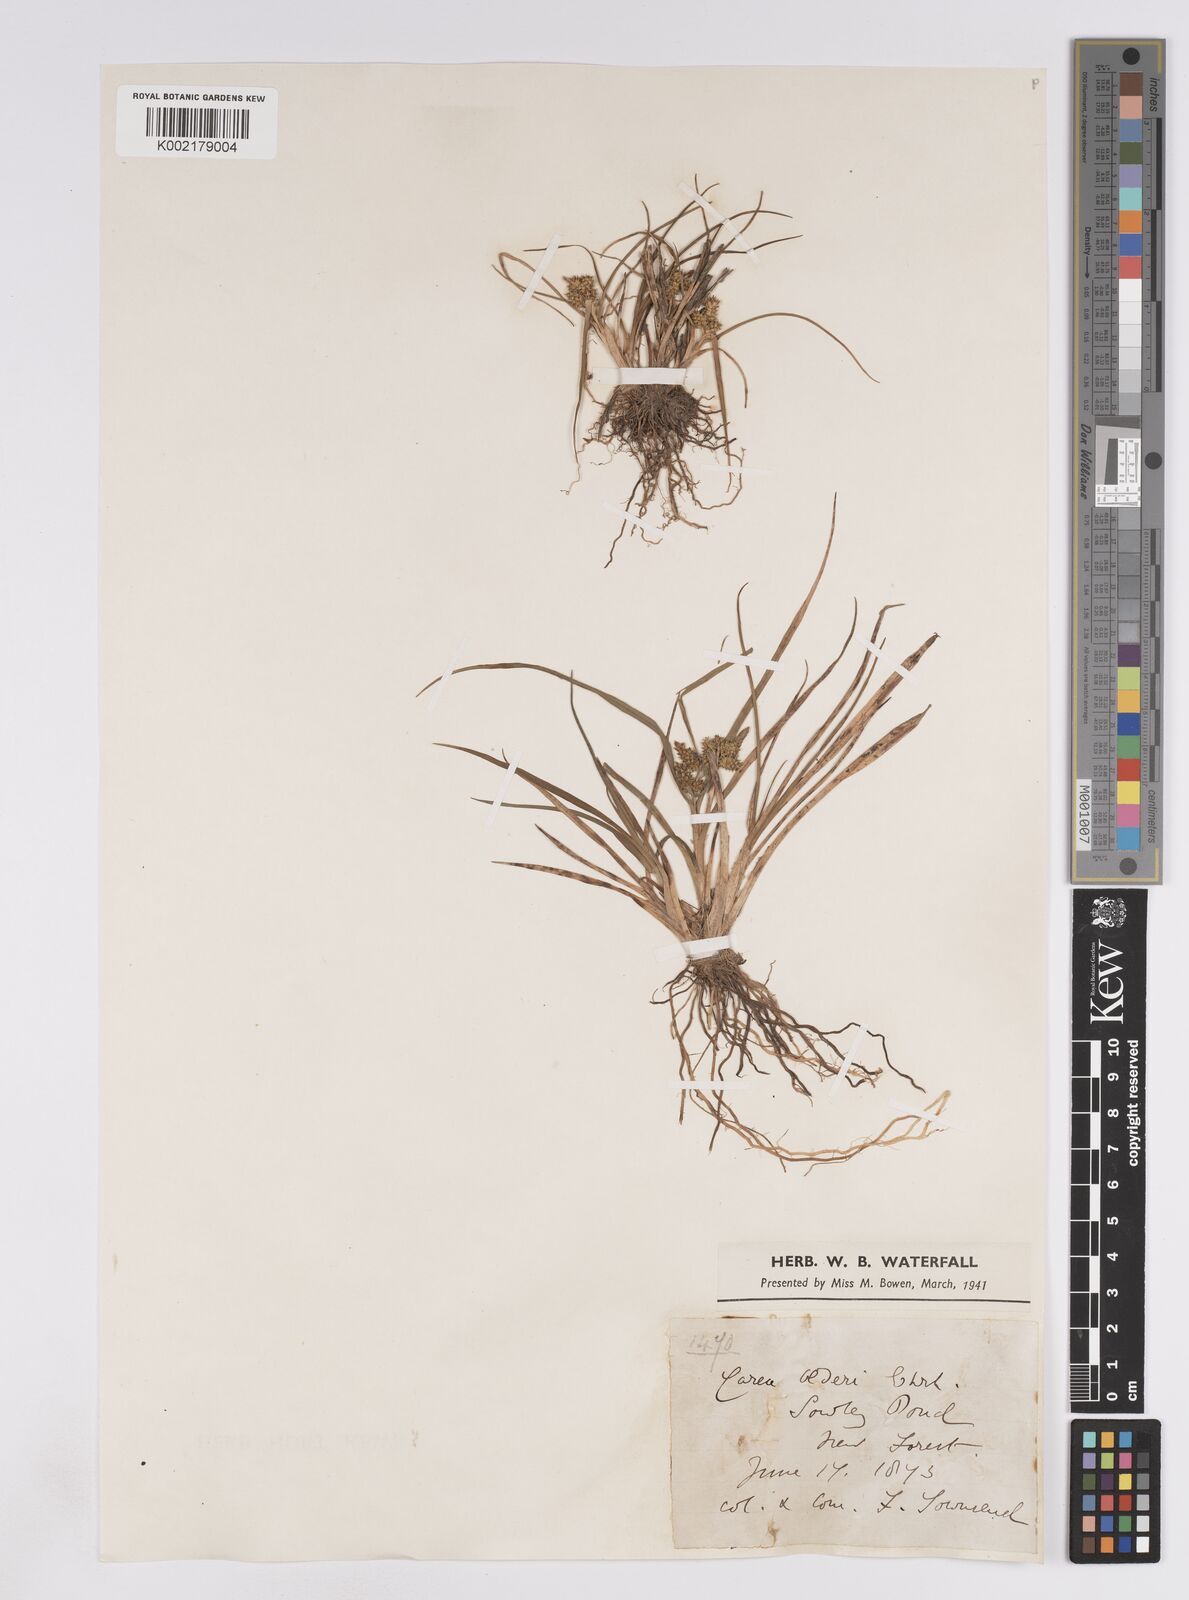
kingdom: Plantae
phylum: Tracheophyta
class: Liliopsida
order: Poales
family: Cyperaceae
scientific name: Cyperaceae
